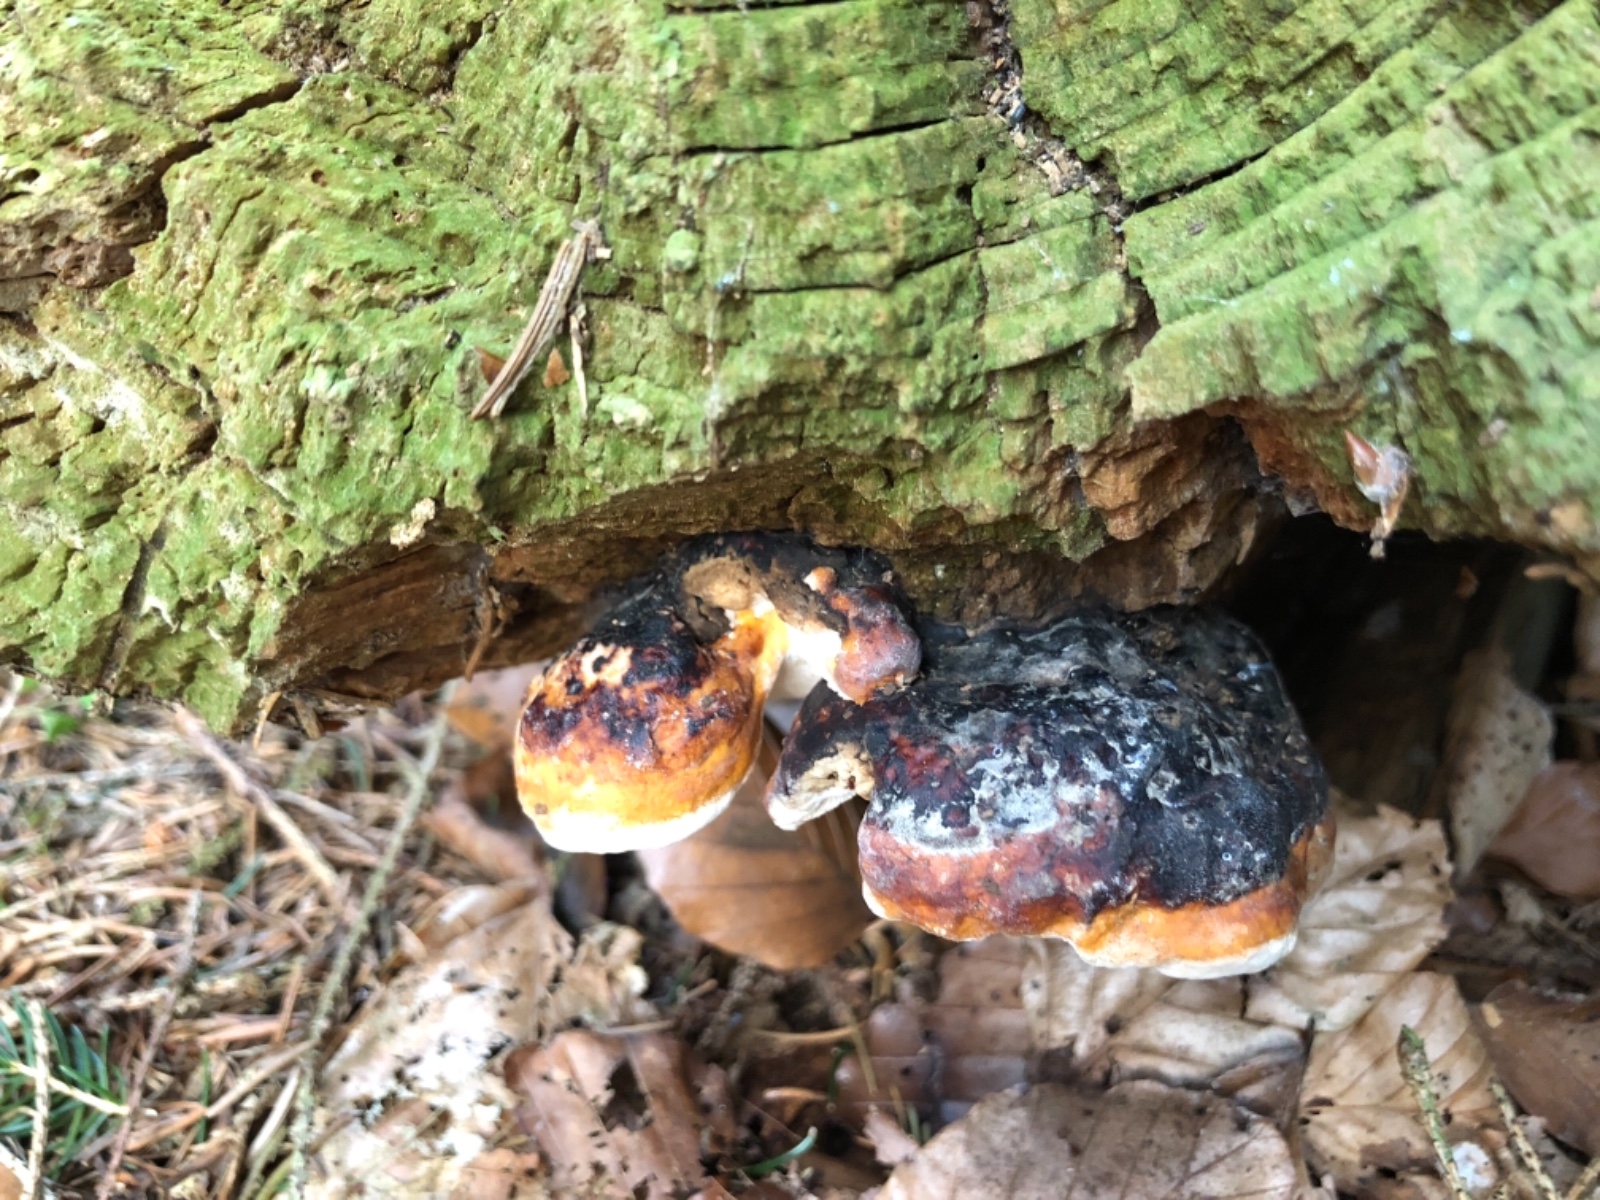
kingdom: Fungi
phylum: Basidiomycota
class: Agaricomycetes
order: Polyporales
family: Fomitopsidaceae
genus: Fomitopsis
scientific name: Fomitopsis pinicola
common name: randbæltet hovporesvamp
